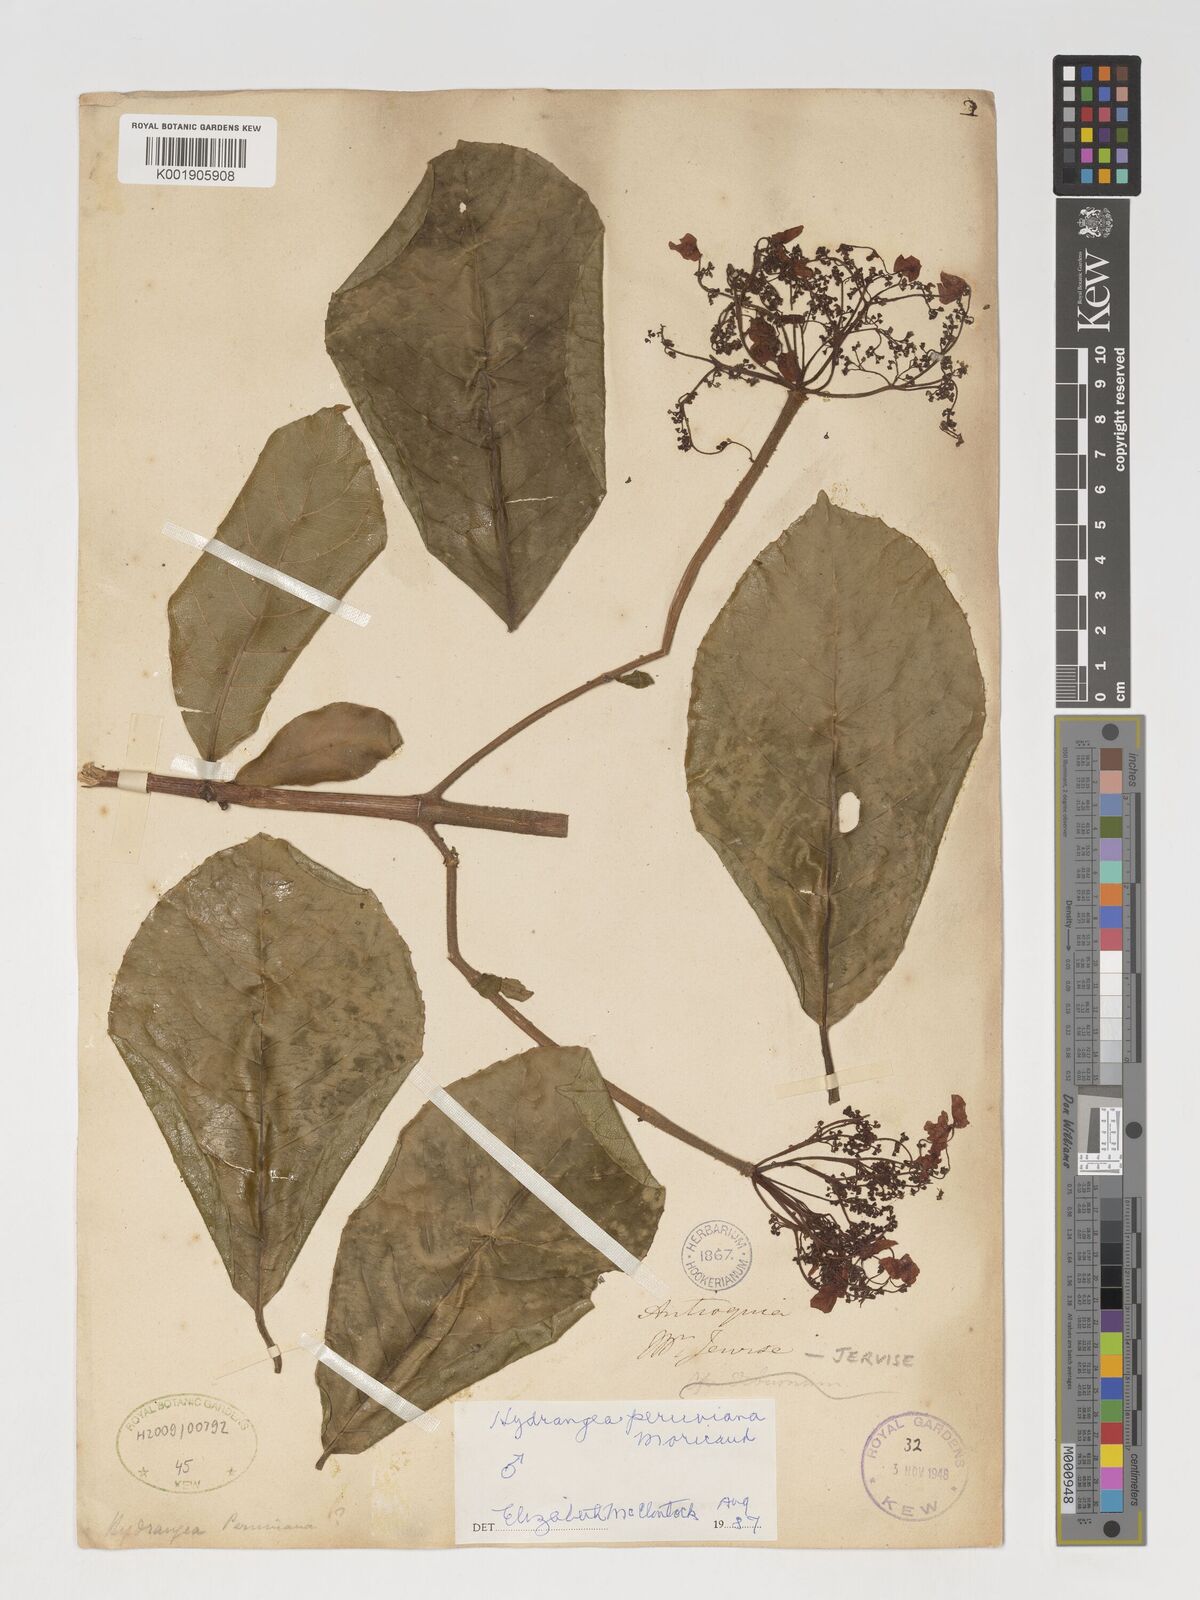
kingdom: Plantae
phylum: Tracheophyta
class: Magnoliopsida
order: Cornales
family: Hydrangeaceae
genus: Hydrangea
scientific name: Hydrangea peruviana
